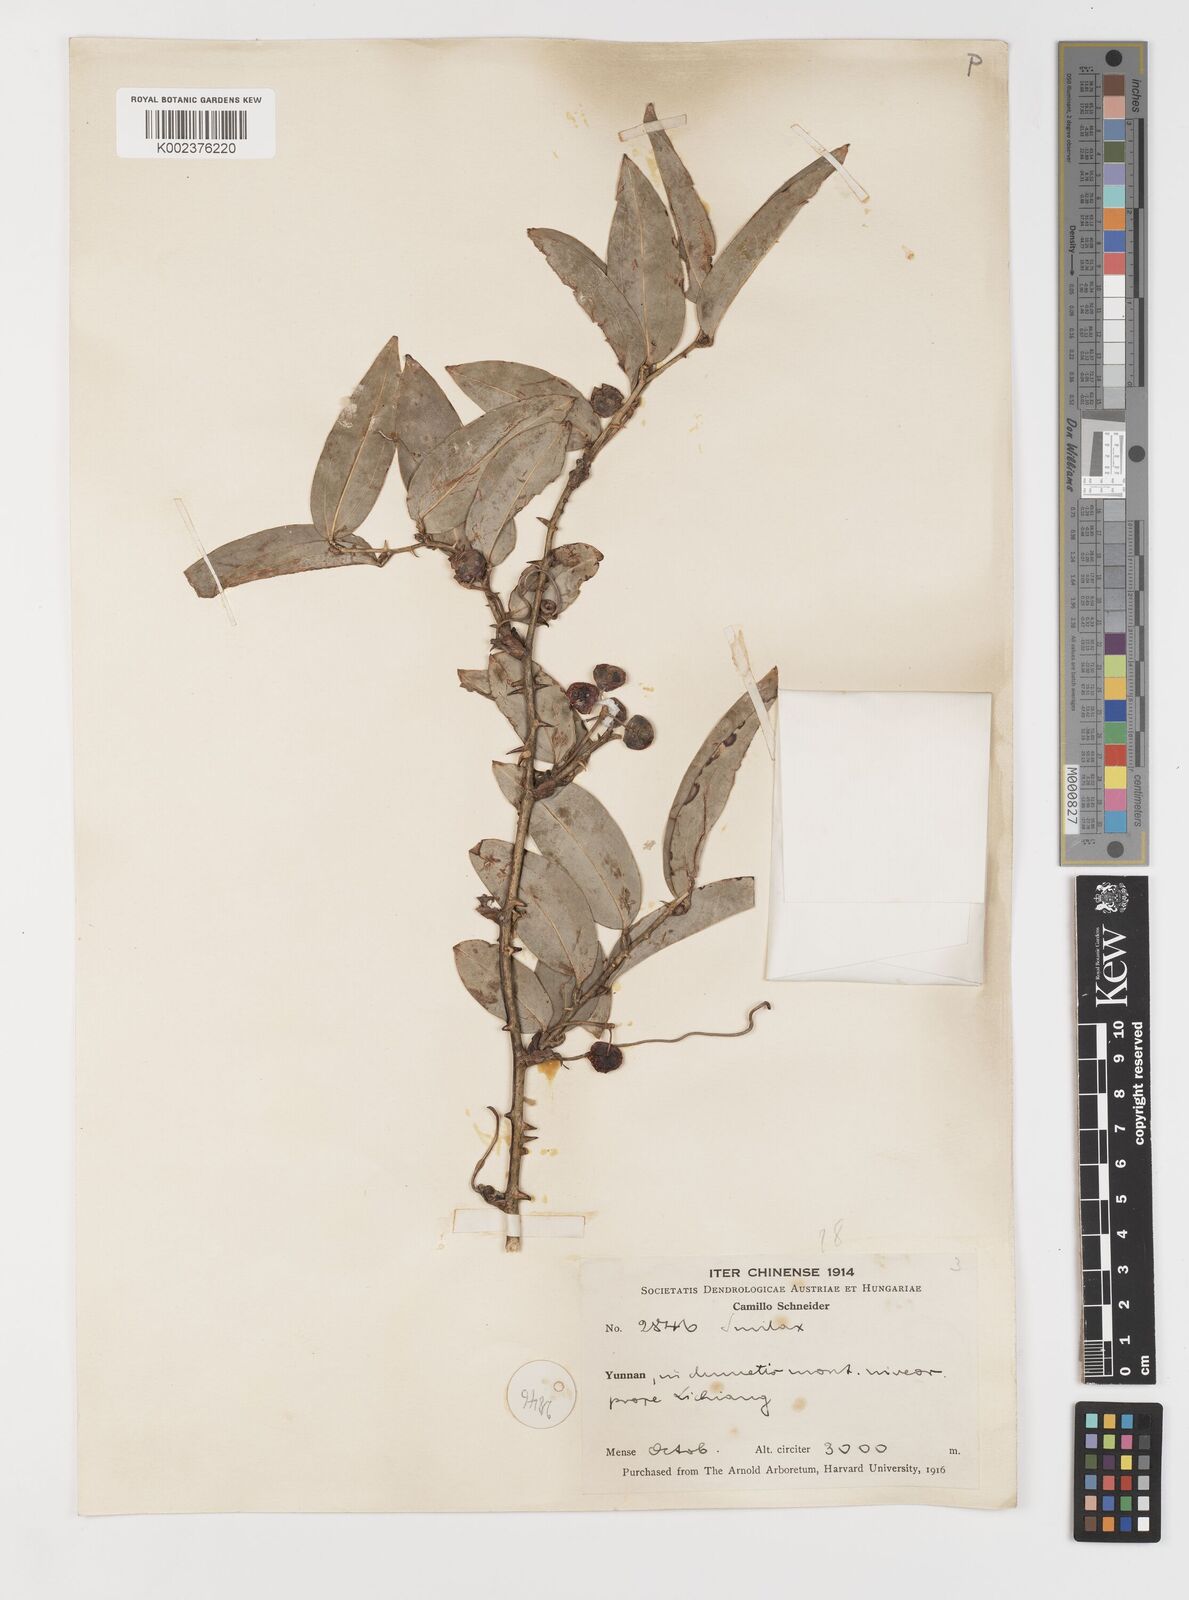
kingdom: Plantae
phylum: Tracheophyta
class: Liliopsida
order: Liliales
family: Smilacaceae
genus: Smilax
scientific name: Smilax ferox
